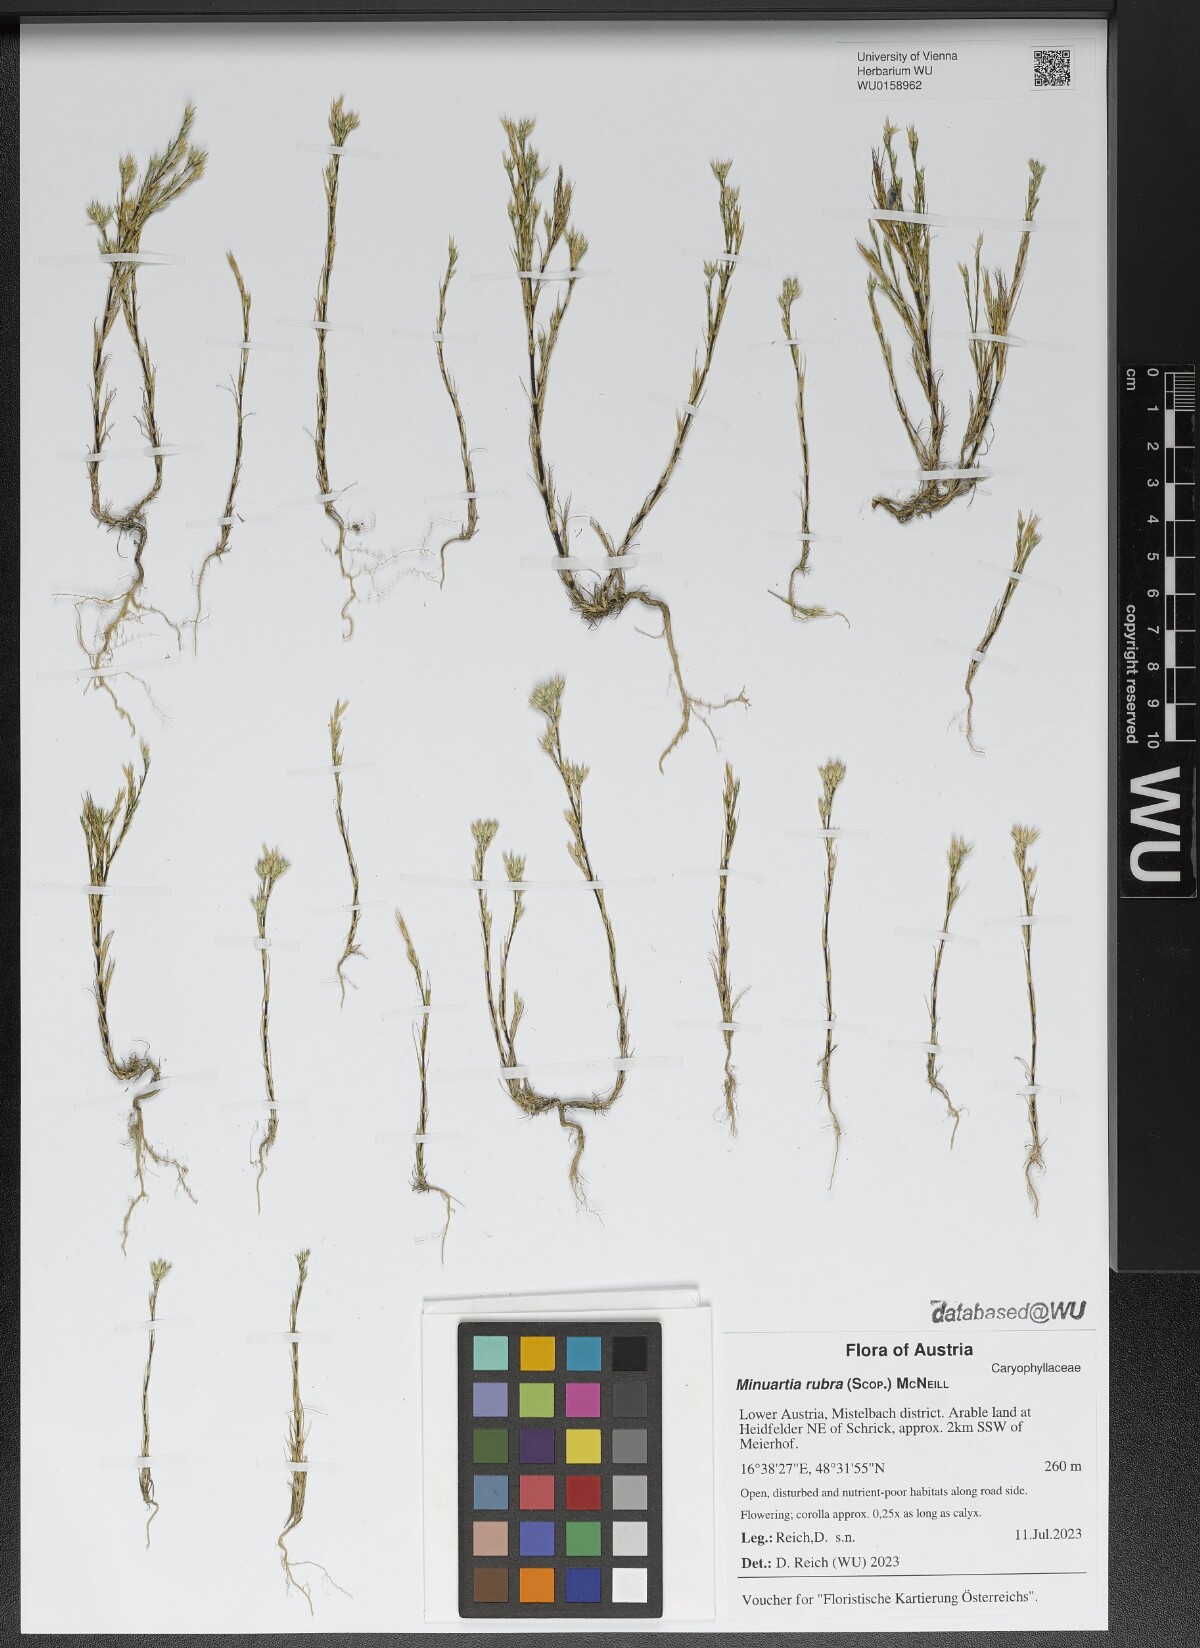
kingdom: Plantae
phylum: Tracheophyta
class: Magnoliopsida
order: Caryophyllales
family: Caryophyllaceae
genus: Minuartia
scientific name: Minuartia mucronata
